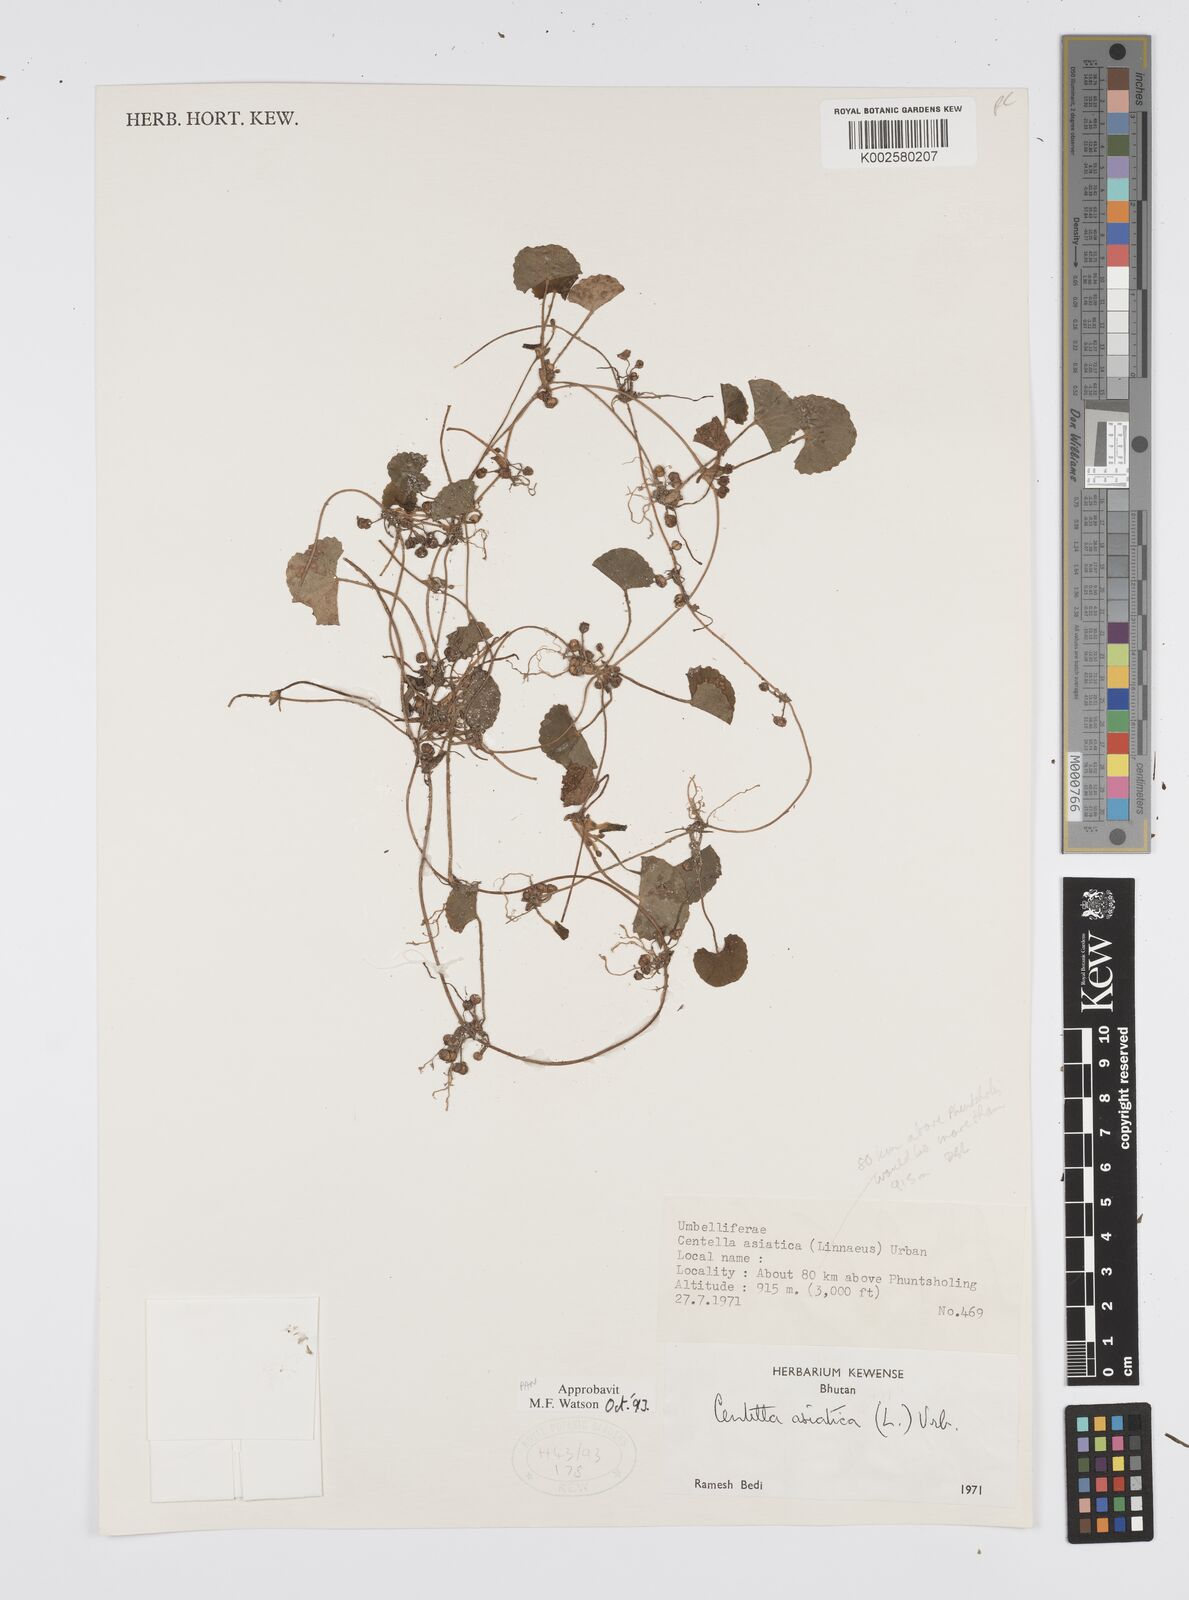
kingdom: Plantae
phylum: Tracheophyta
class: Magnoliopsida
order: Apiales
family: Apiaceae
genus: Centella
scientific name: Centella asiatica
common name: Spadeleaf
